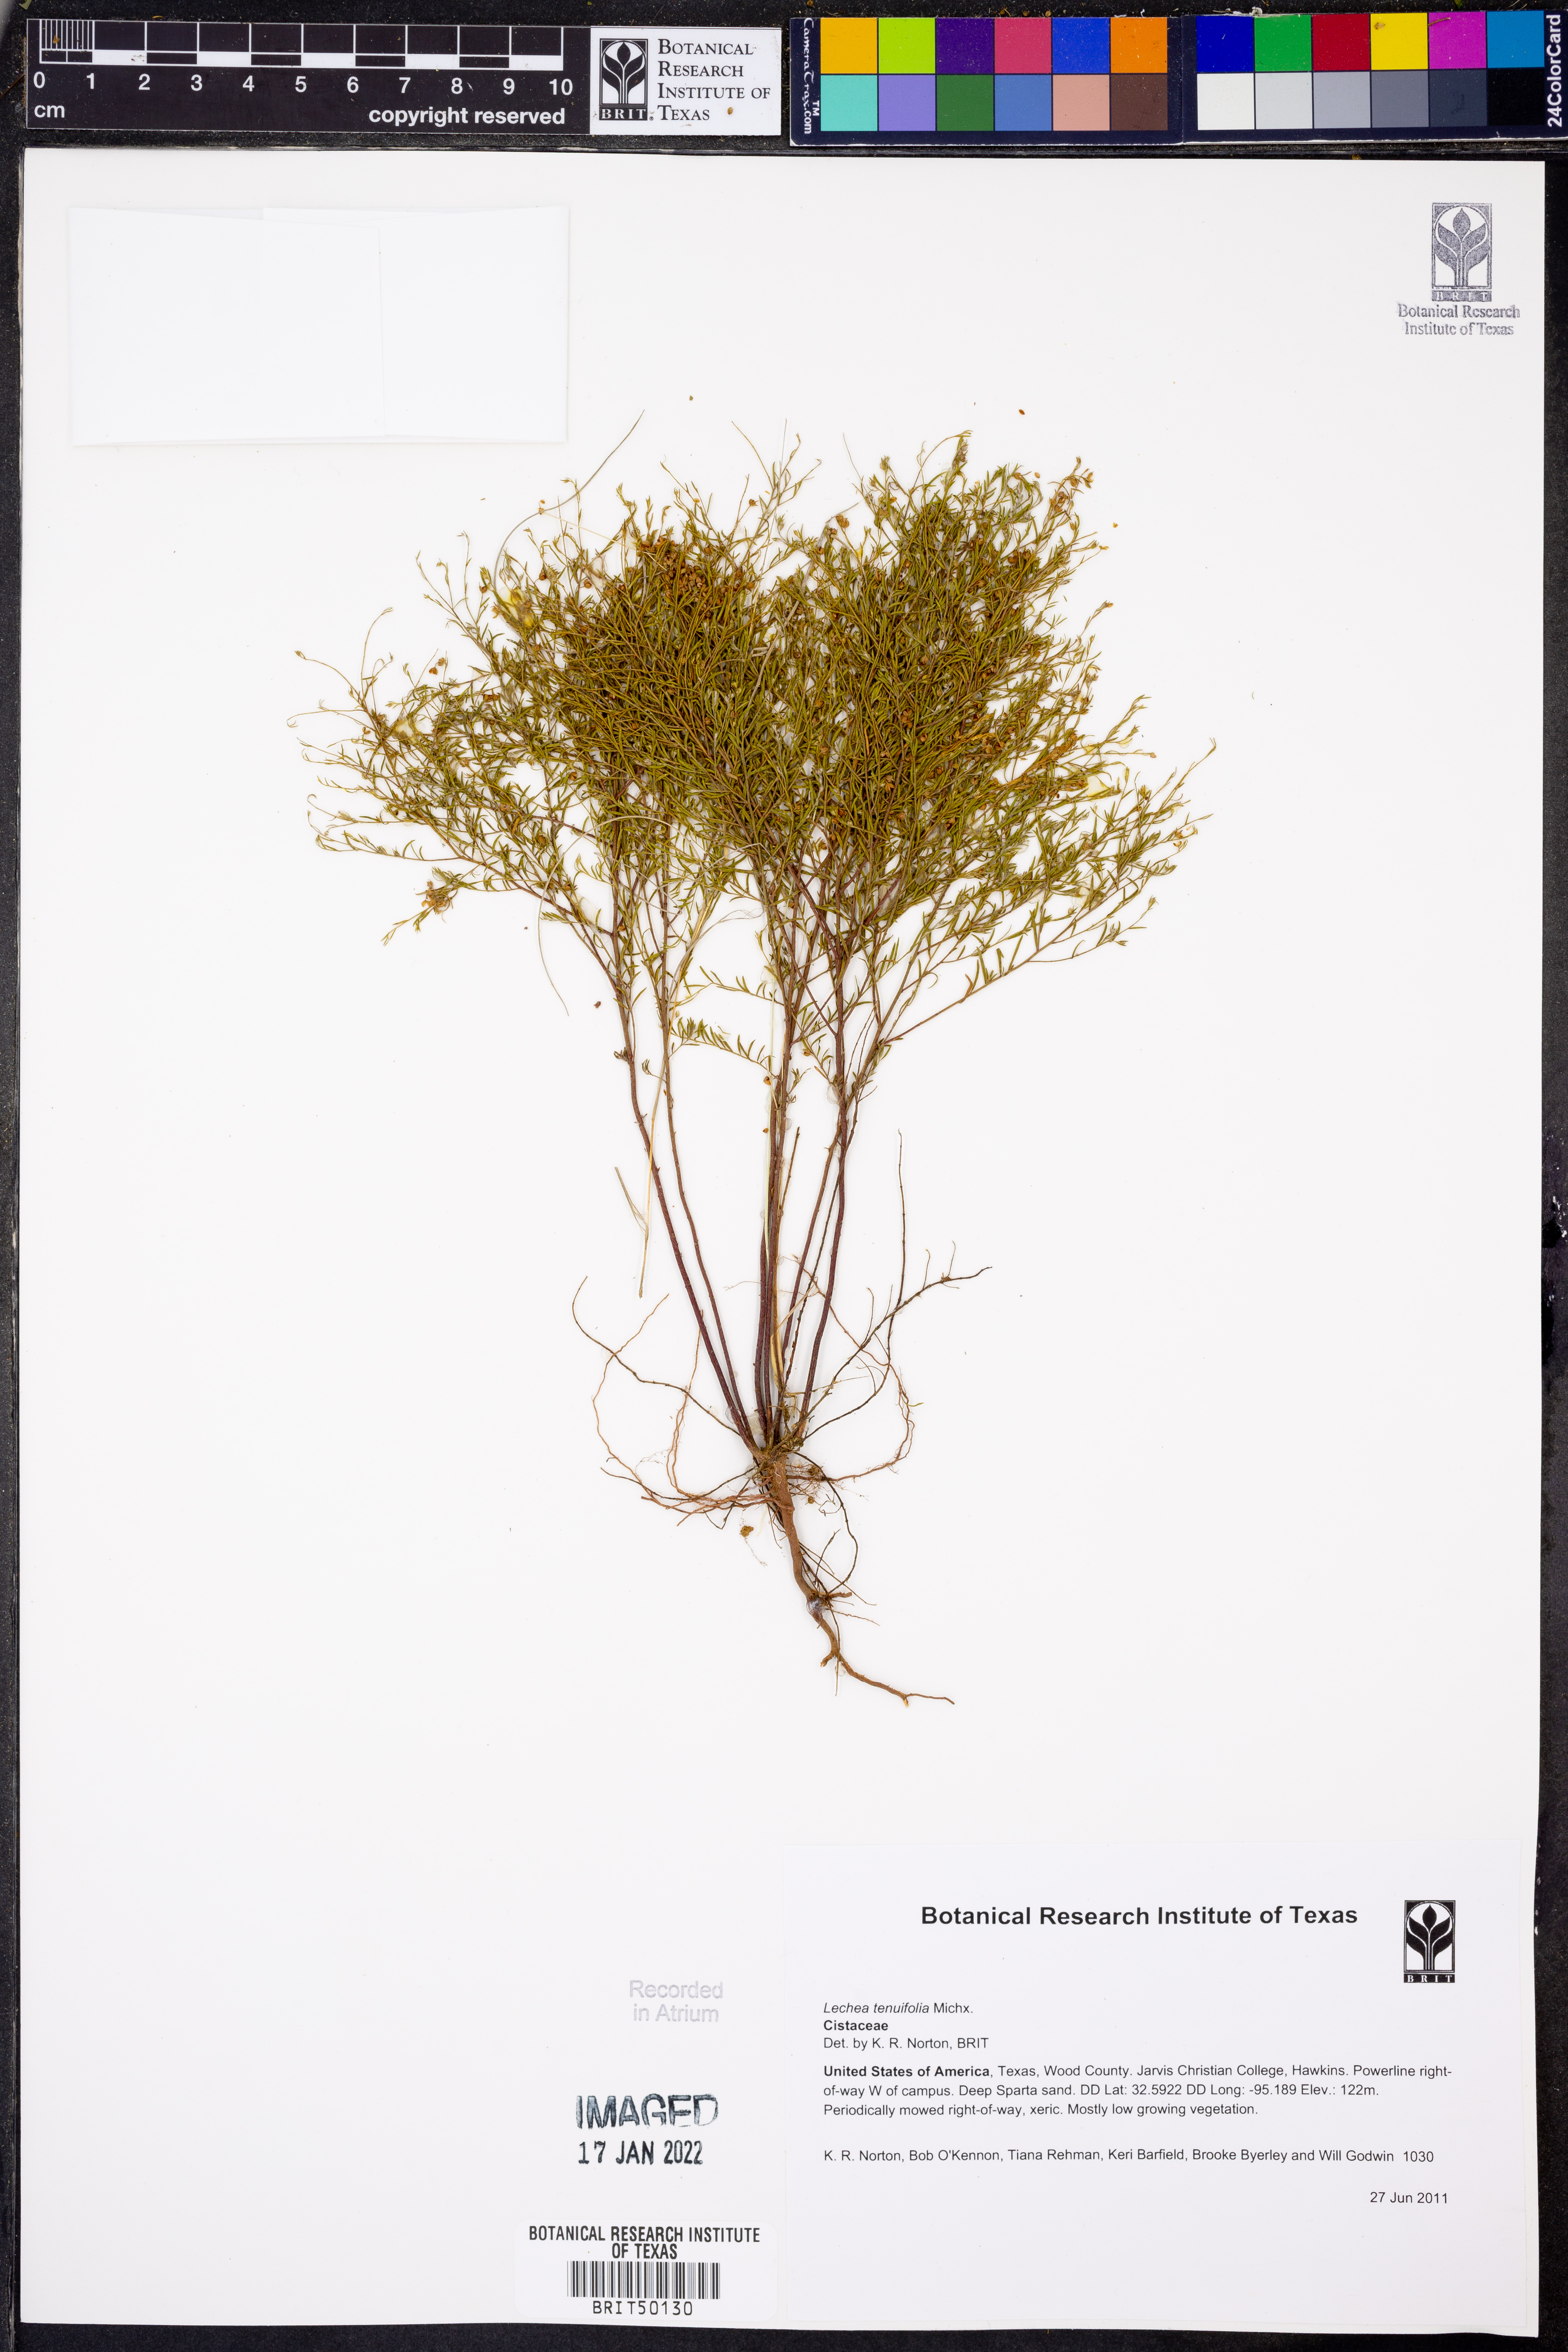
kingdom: Plantae
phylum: Tracheophyta
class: Magnoliopsida
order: Malvales
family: Cistaceae
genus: Lechea
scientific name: Lechea tenuifolia
